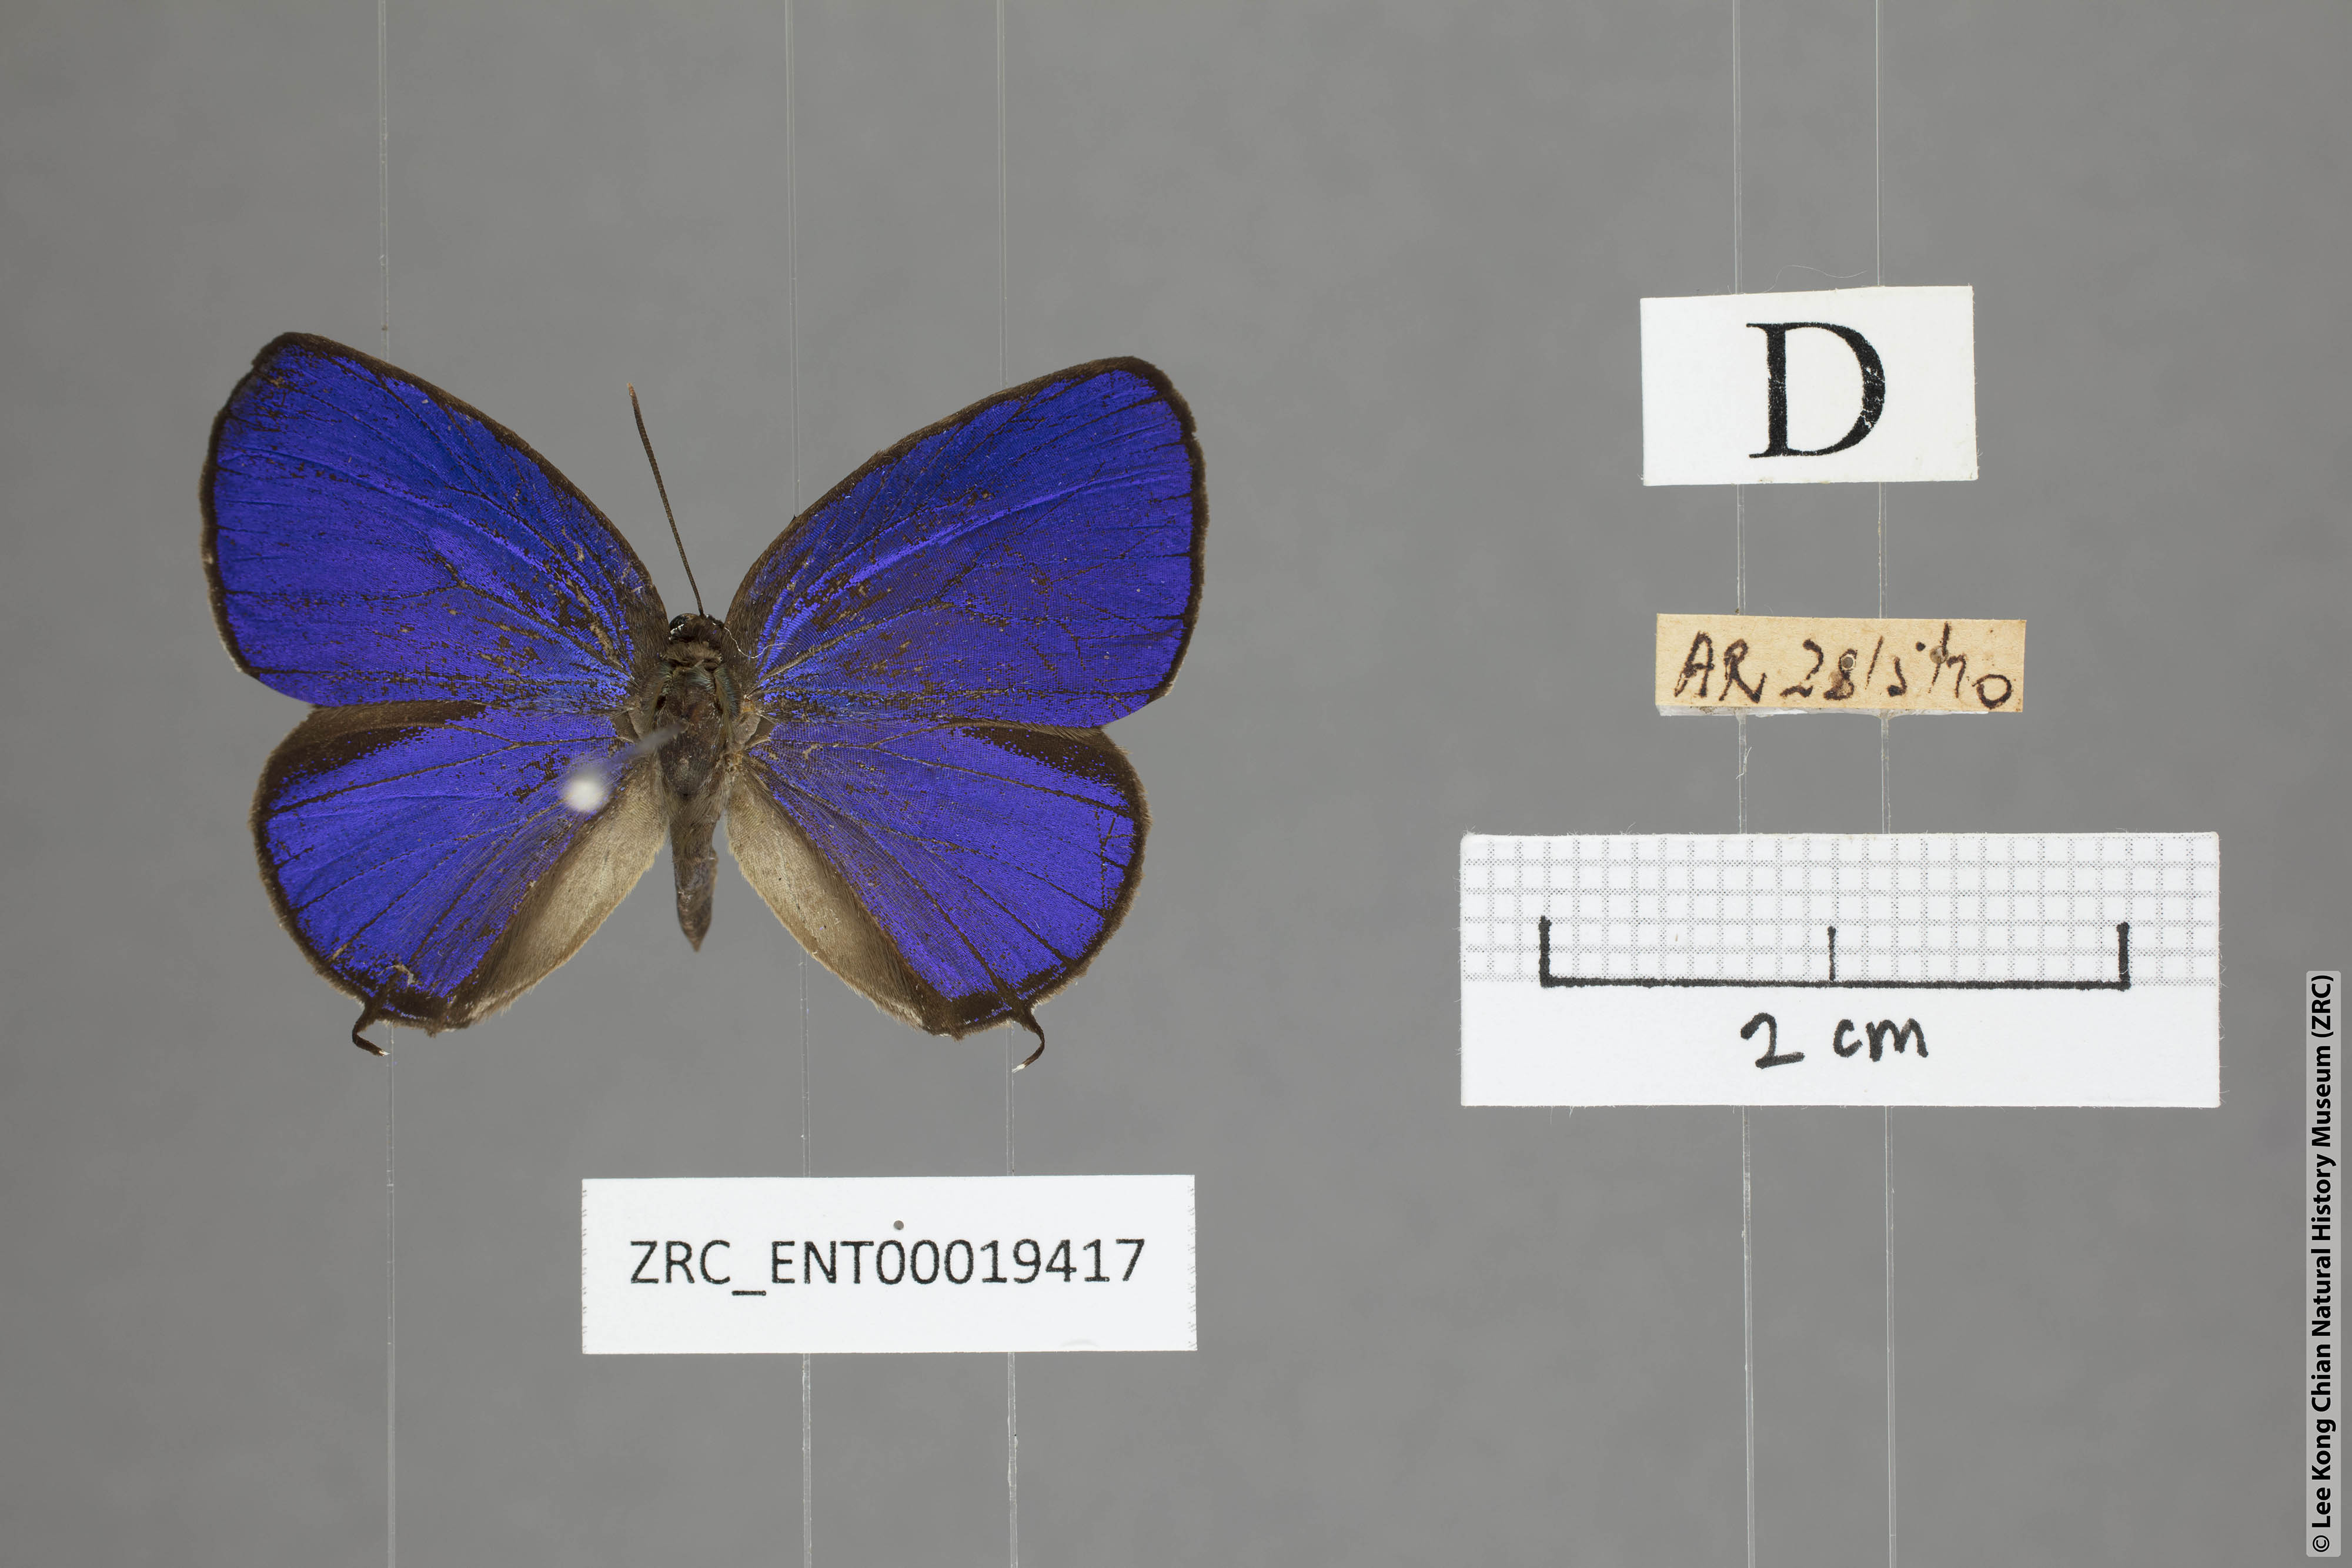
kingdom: Animalia
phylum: Arthropoda
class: Insecta
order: Lepidoptera
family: Lycaenidae
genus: Arhopala
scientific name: Arhopala elopura
